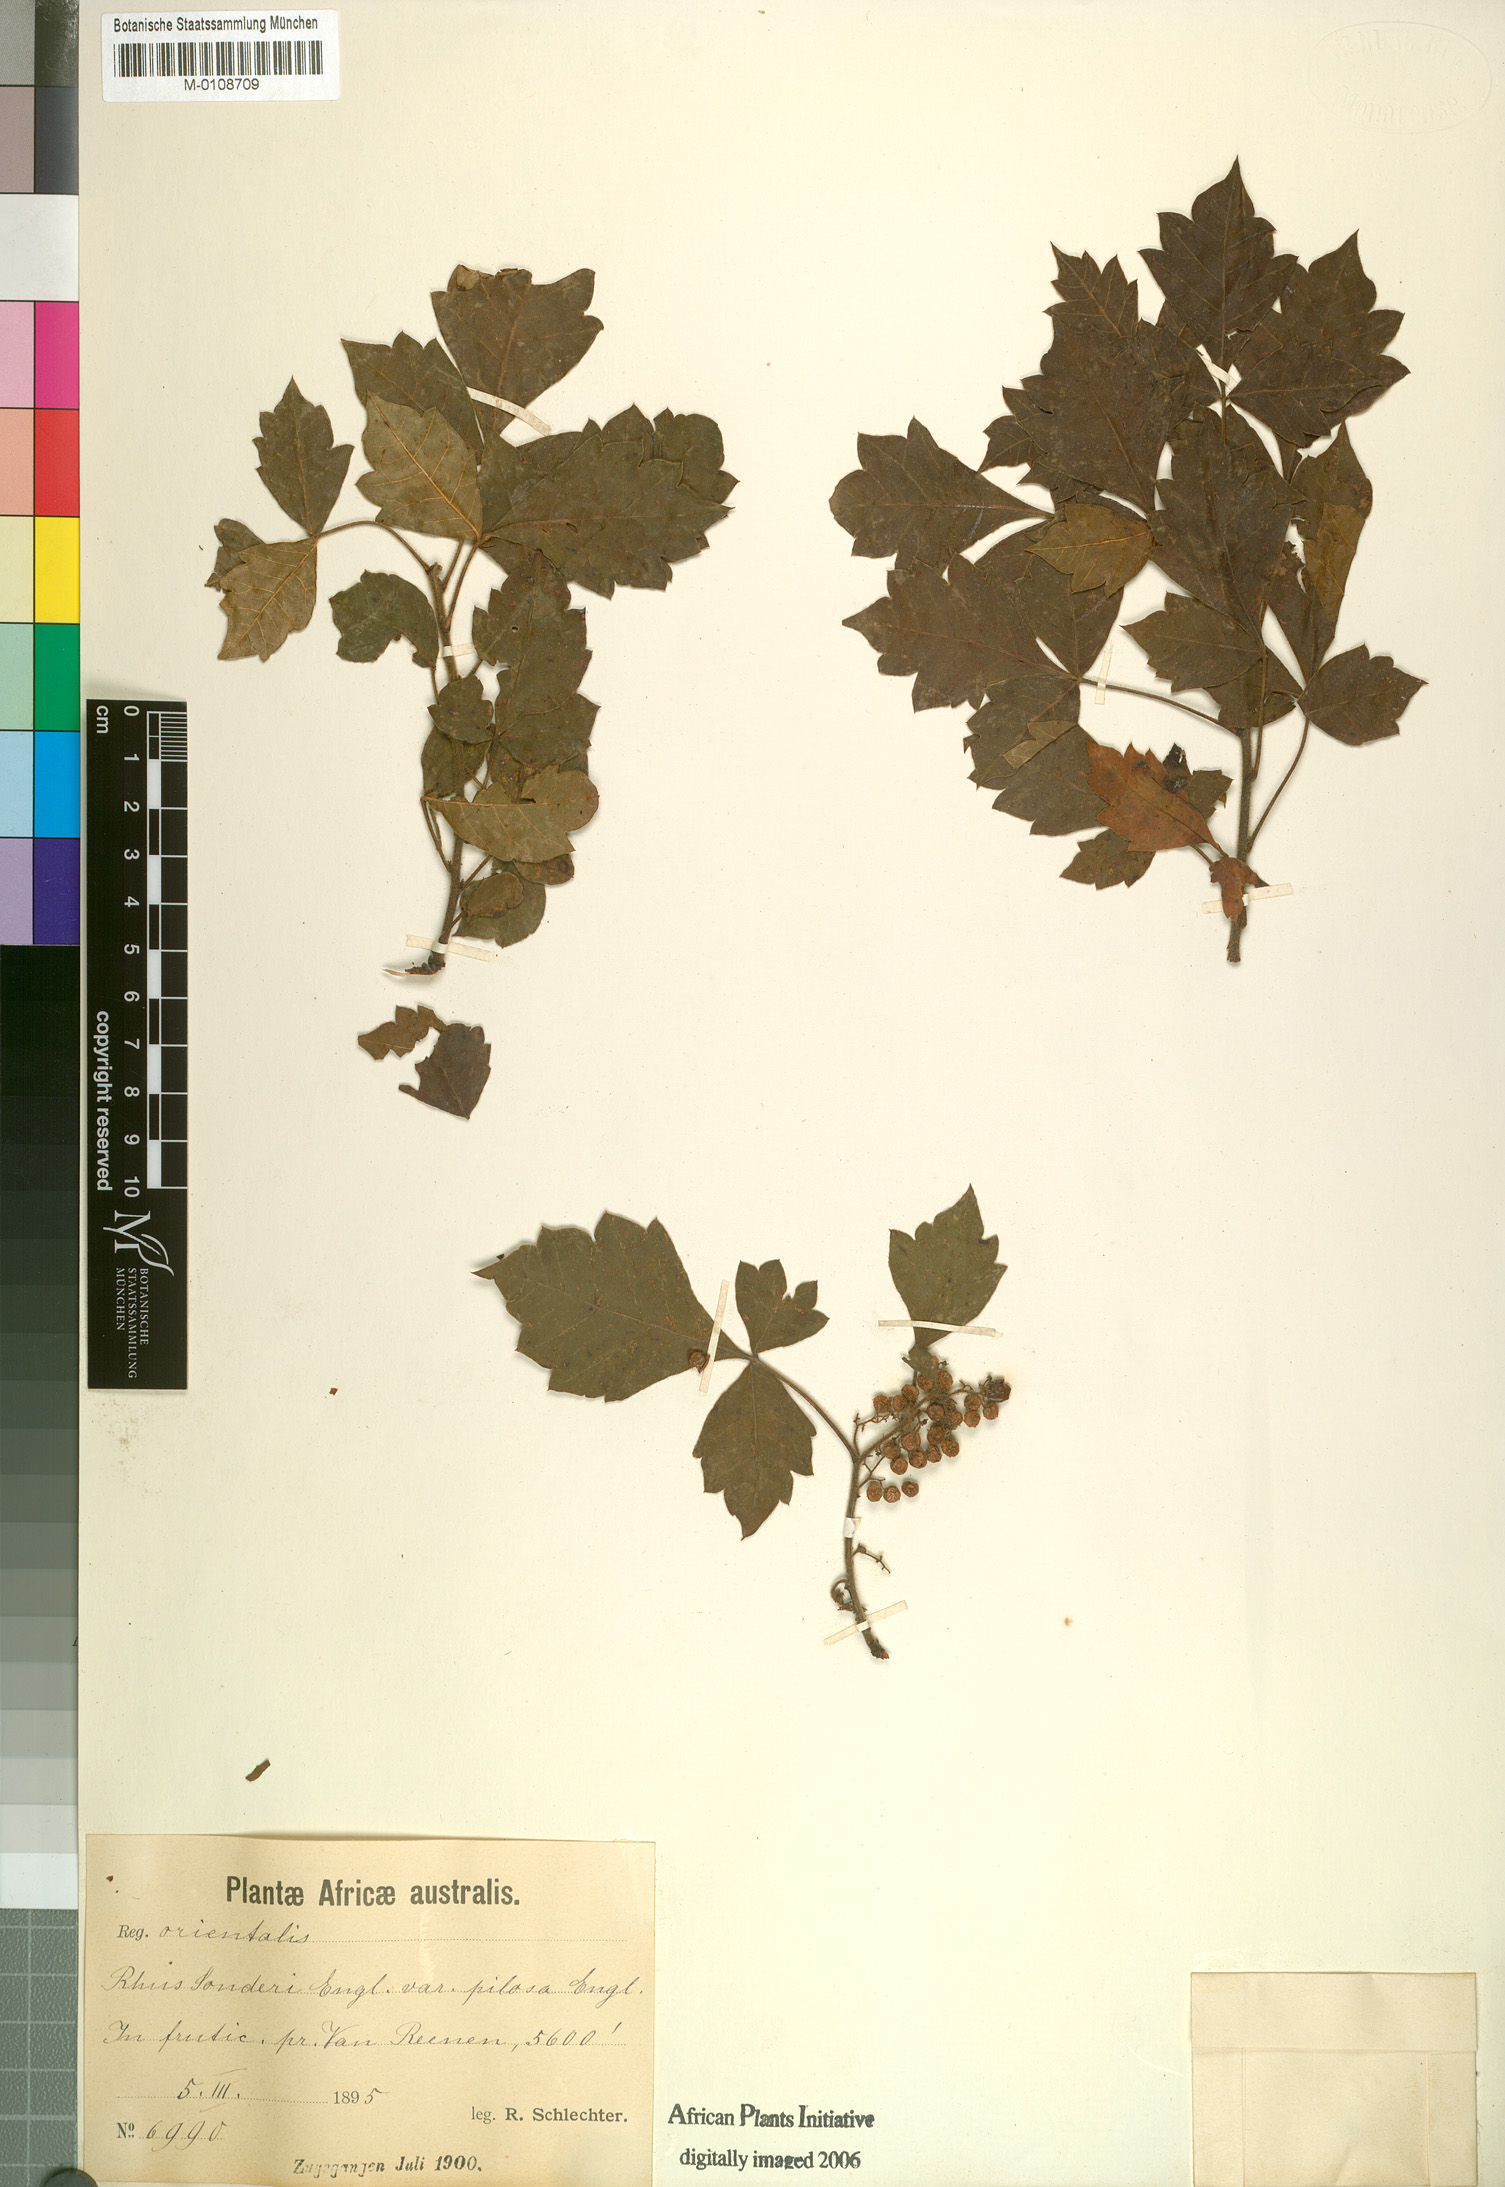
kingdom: Plantae
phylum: Tracheophyta
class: Magnoliopsida
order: Sapindales
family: Anacardiaceae
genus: Searsia
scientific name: Searsia dentata
